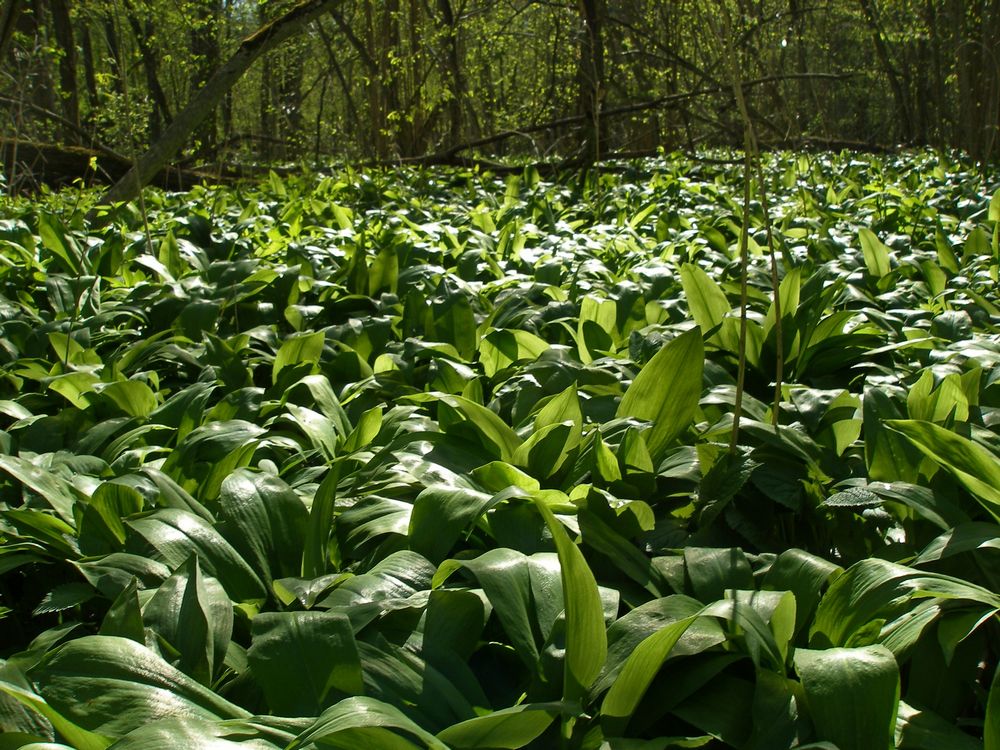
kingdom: Plantae
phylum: Tracheophyta
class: Liliopsida
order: Asparagales
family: Amaryllidaceae
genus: Allium
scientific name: Allium ursinum
